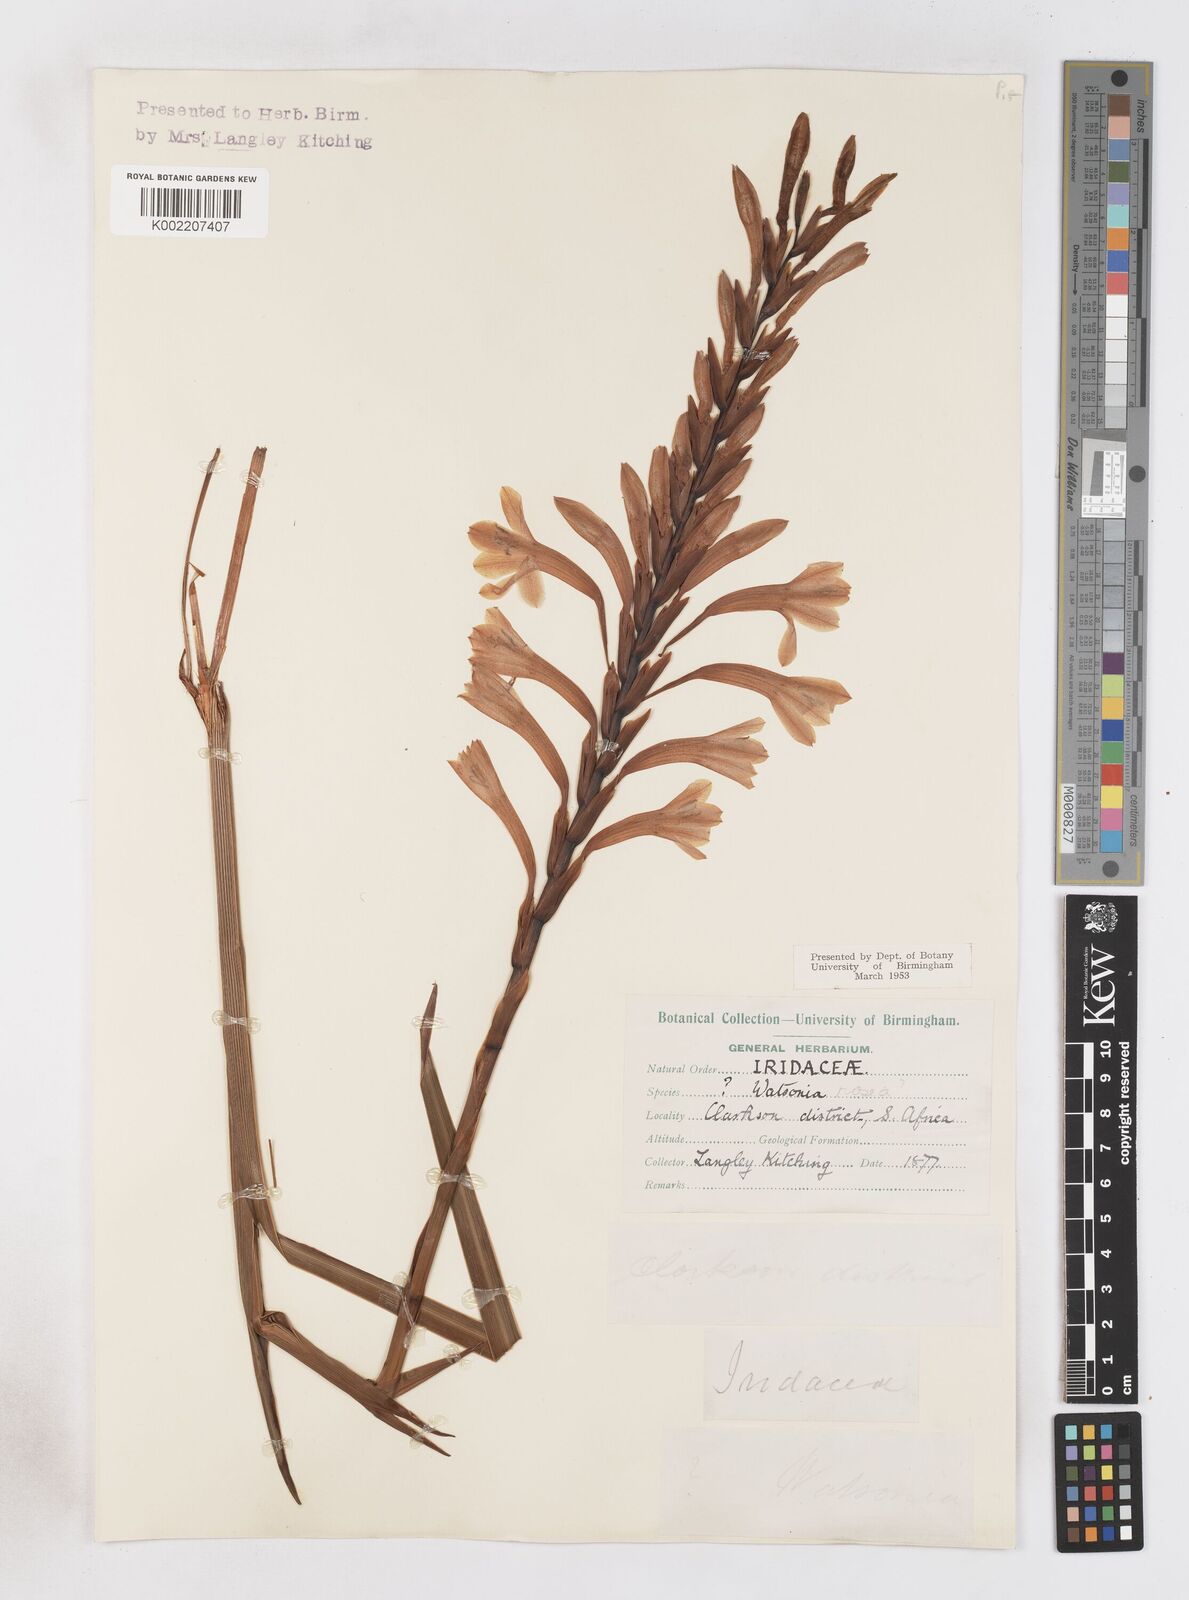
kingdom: Plantae
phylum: Tracheophyta
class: Liliopsida
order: Asparagales
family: Iridaceae
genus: Watsonia
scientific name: Watsonia pillansii
